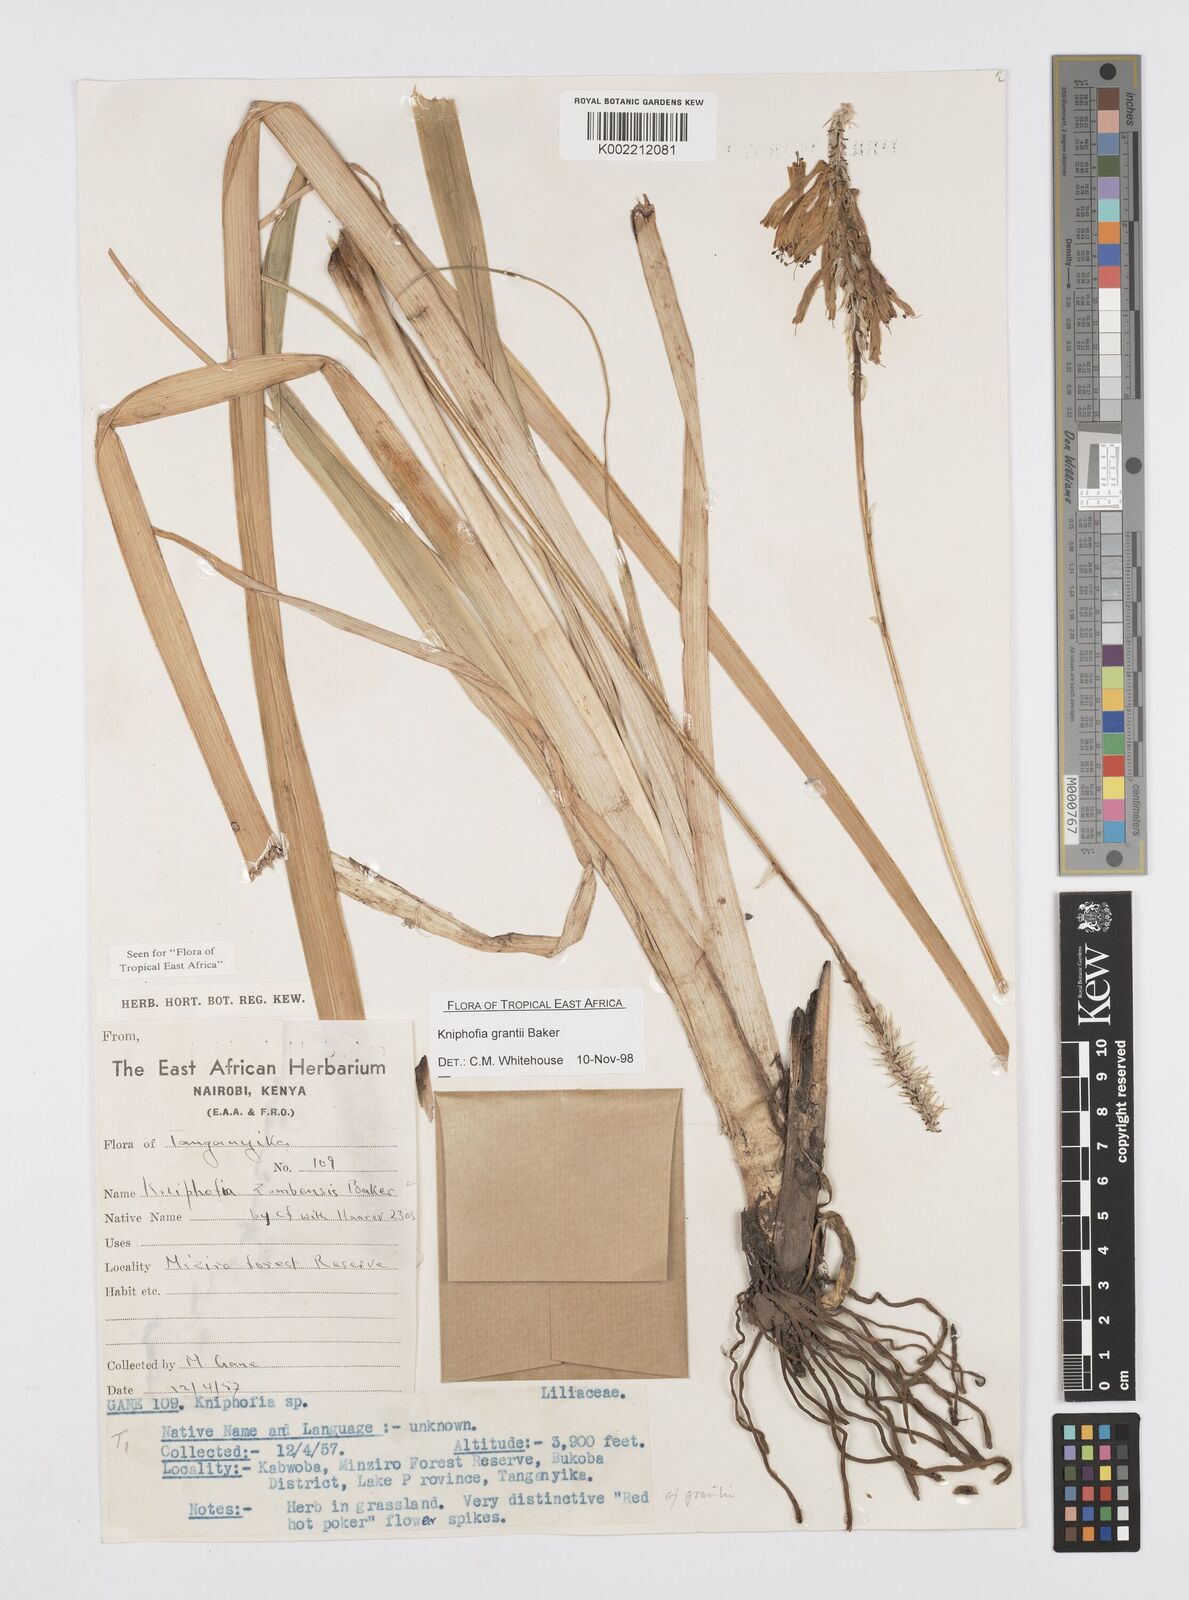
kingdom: Plantae
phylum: Tracheophyta
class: Liliopsida
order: Asparagales
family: Asphodelaceae
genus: Kniphofia
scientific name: Kniphofia grantii
